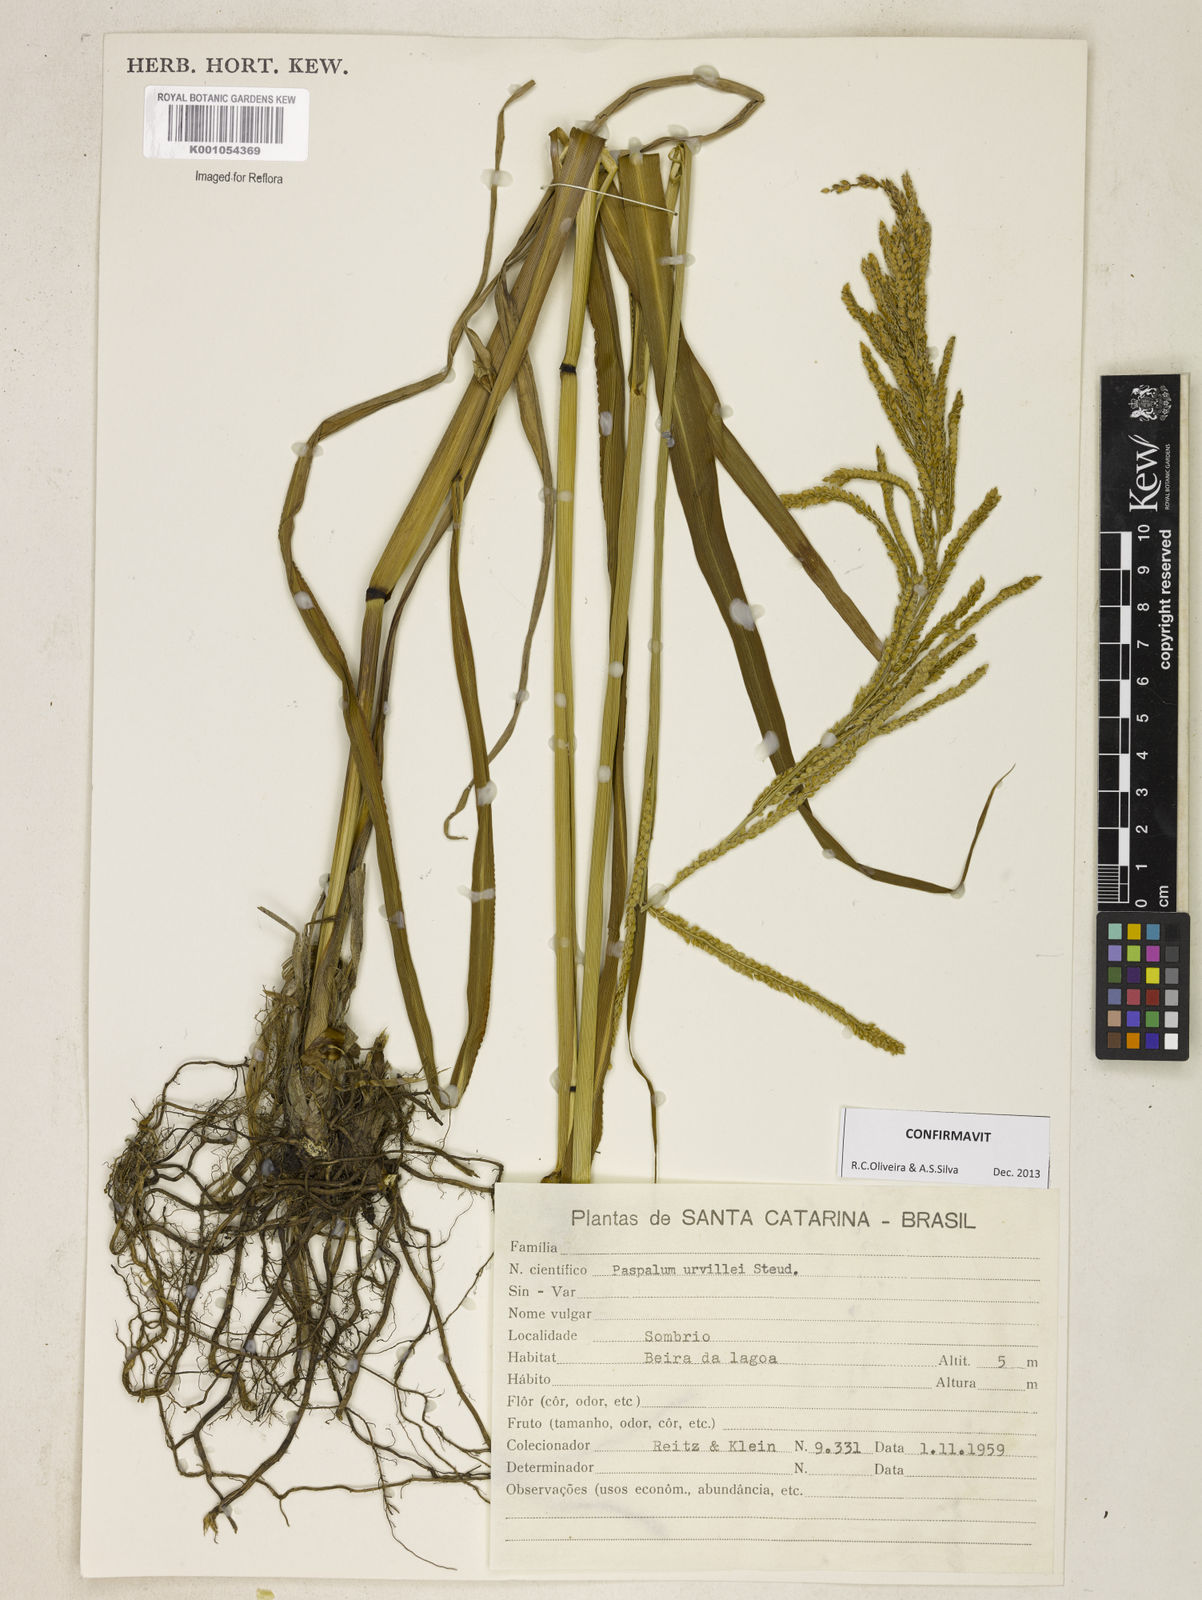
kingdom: Plantae
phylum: Tracheophyta
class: Liliopsida
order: Poales
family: Poaceae
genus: Paspalum
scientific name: Paspalum urvillei
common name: Vasey's grass
